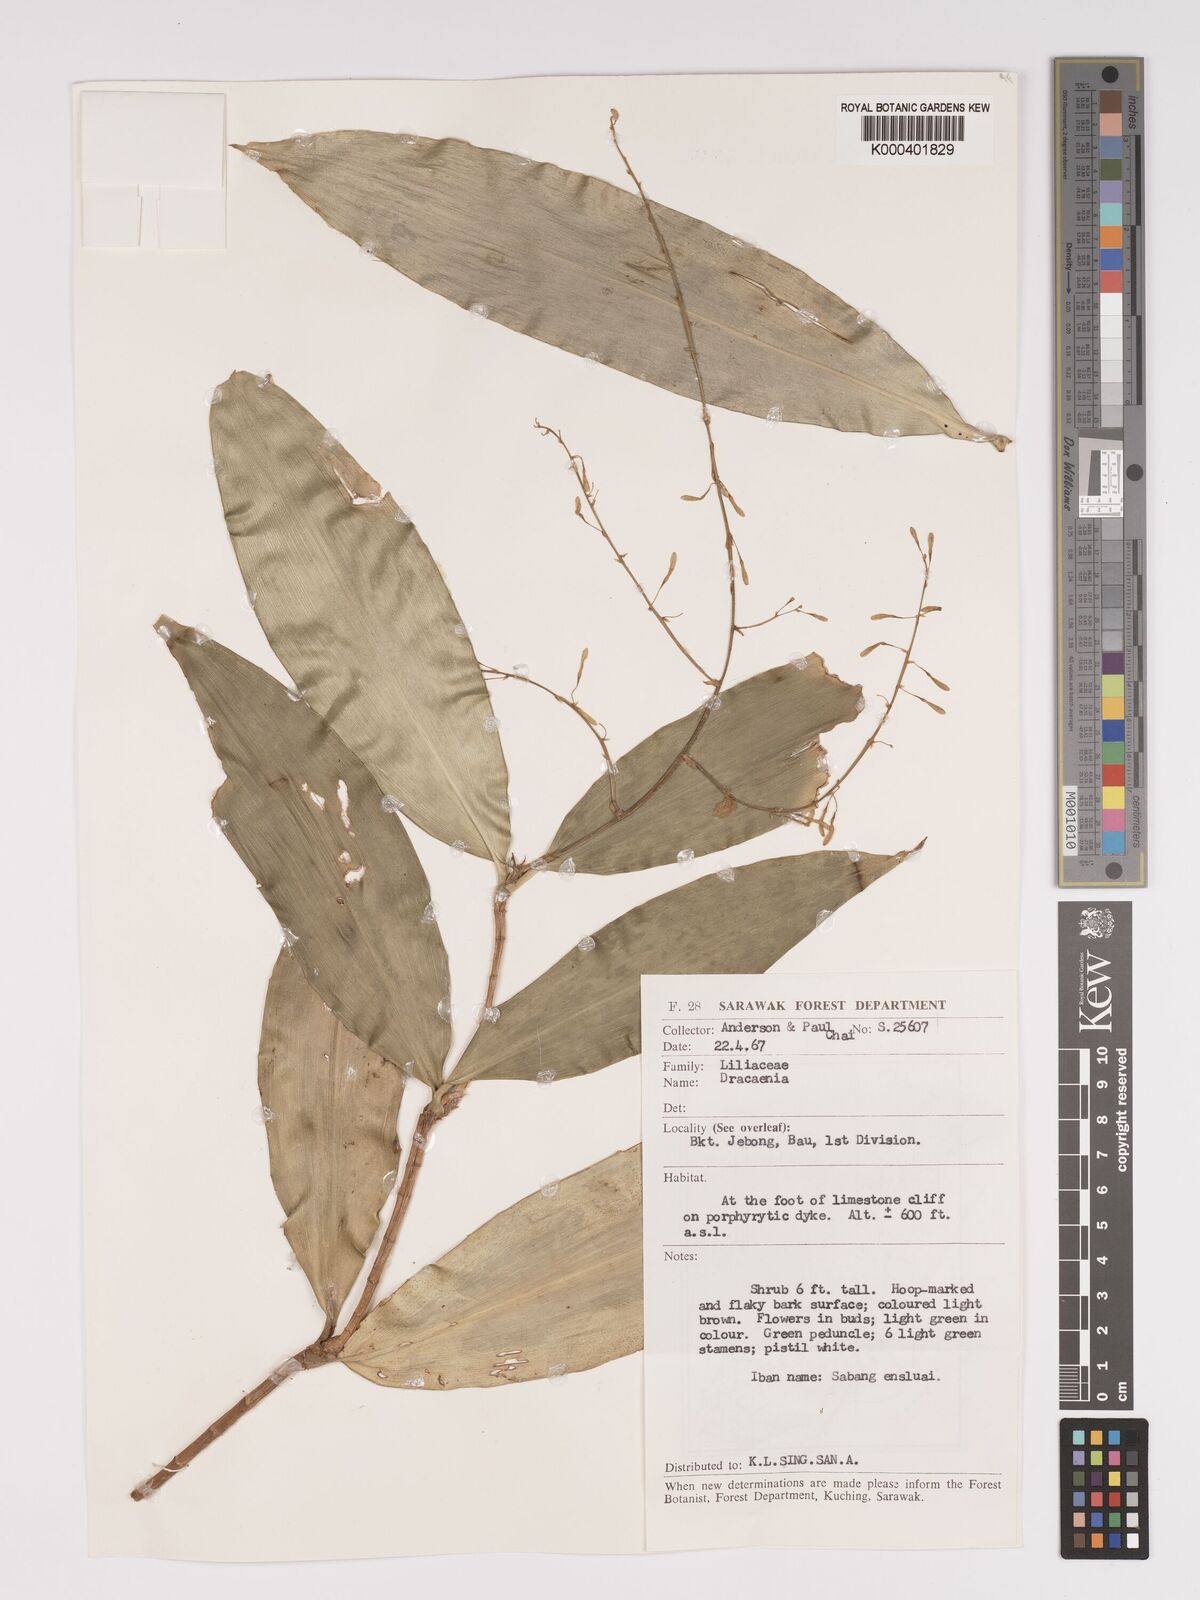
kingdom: Plantae
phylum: Tracheophyta
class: Liliopsida
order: Asparagales
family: Asparagaceae
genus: Dracaena
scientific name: Dracaena
